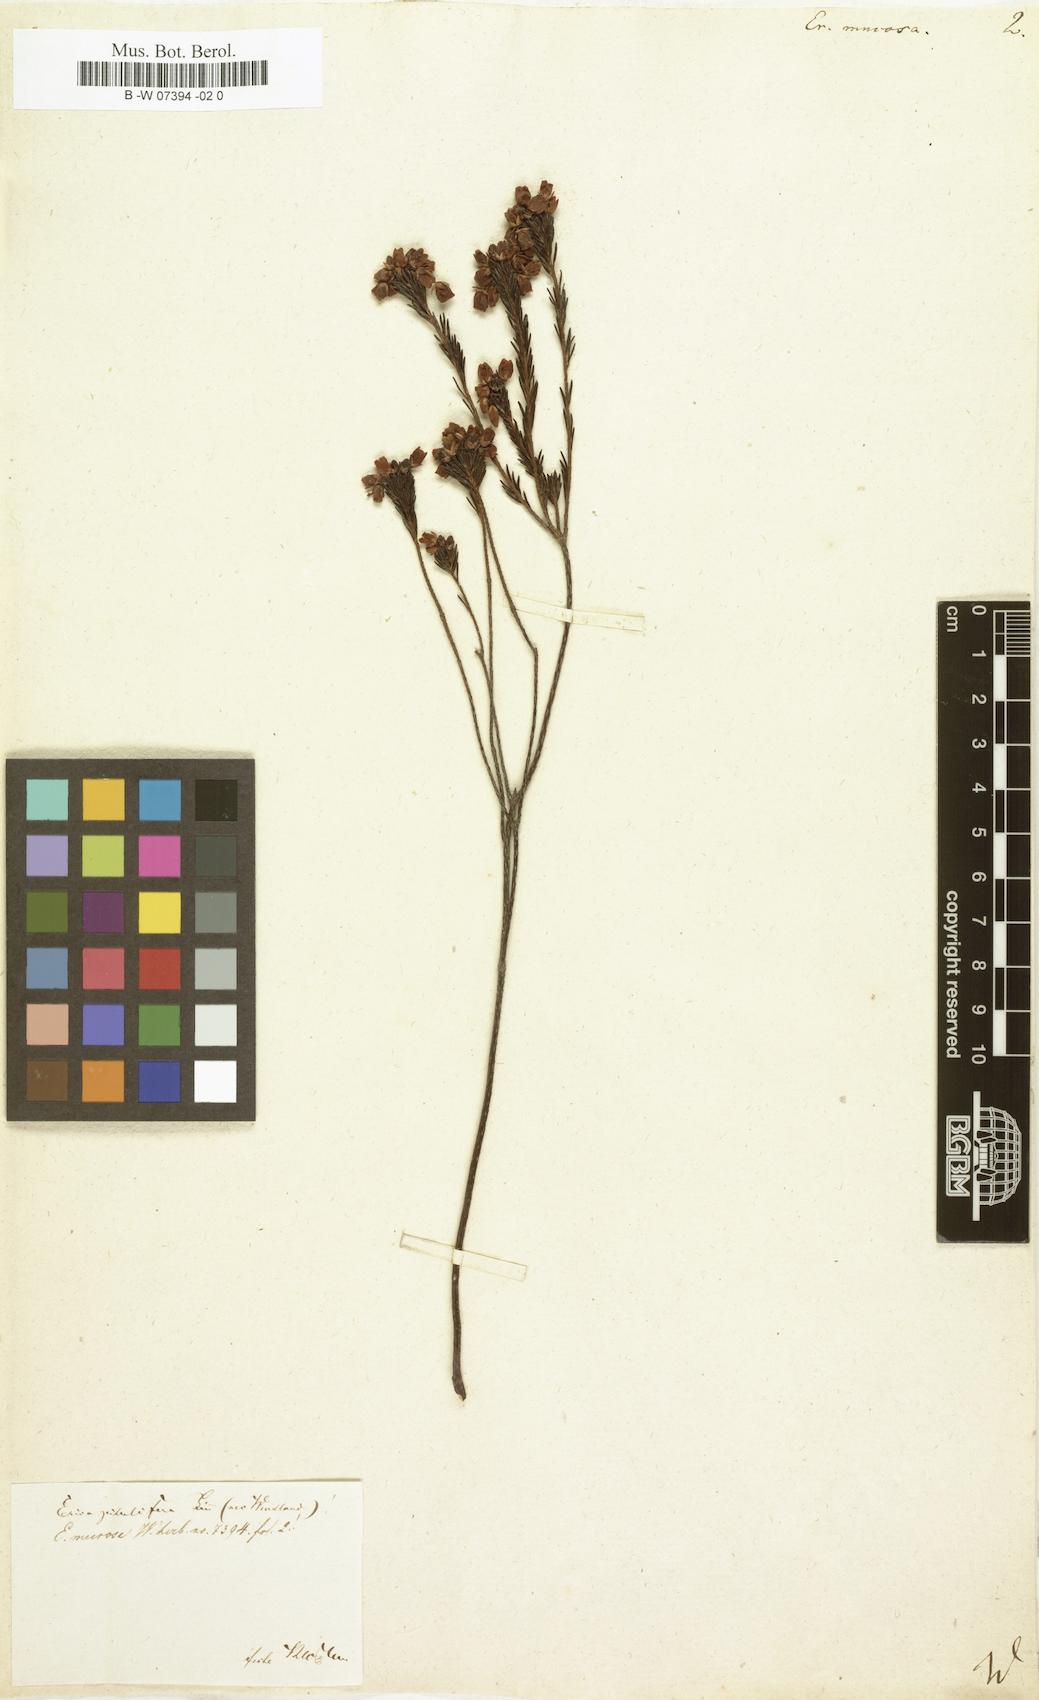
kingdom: Plantae
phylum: Tracheophyta
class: Magnoliopsida
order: Ericales
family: Ericaceae
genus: Erica
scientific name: Erica ferrea
